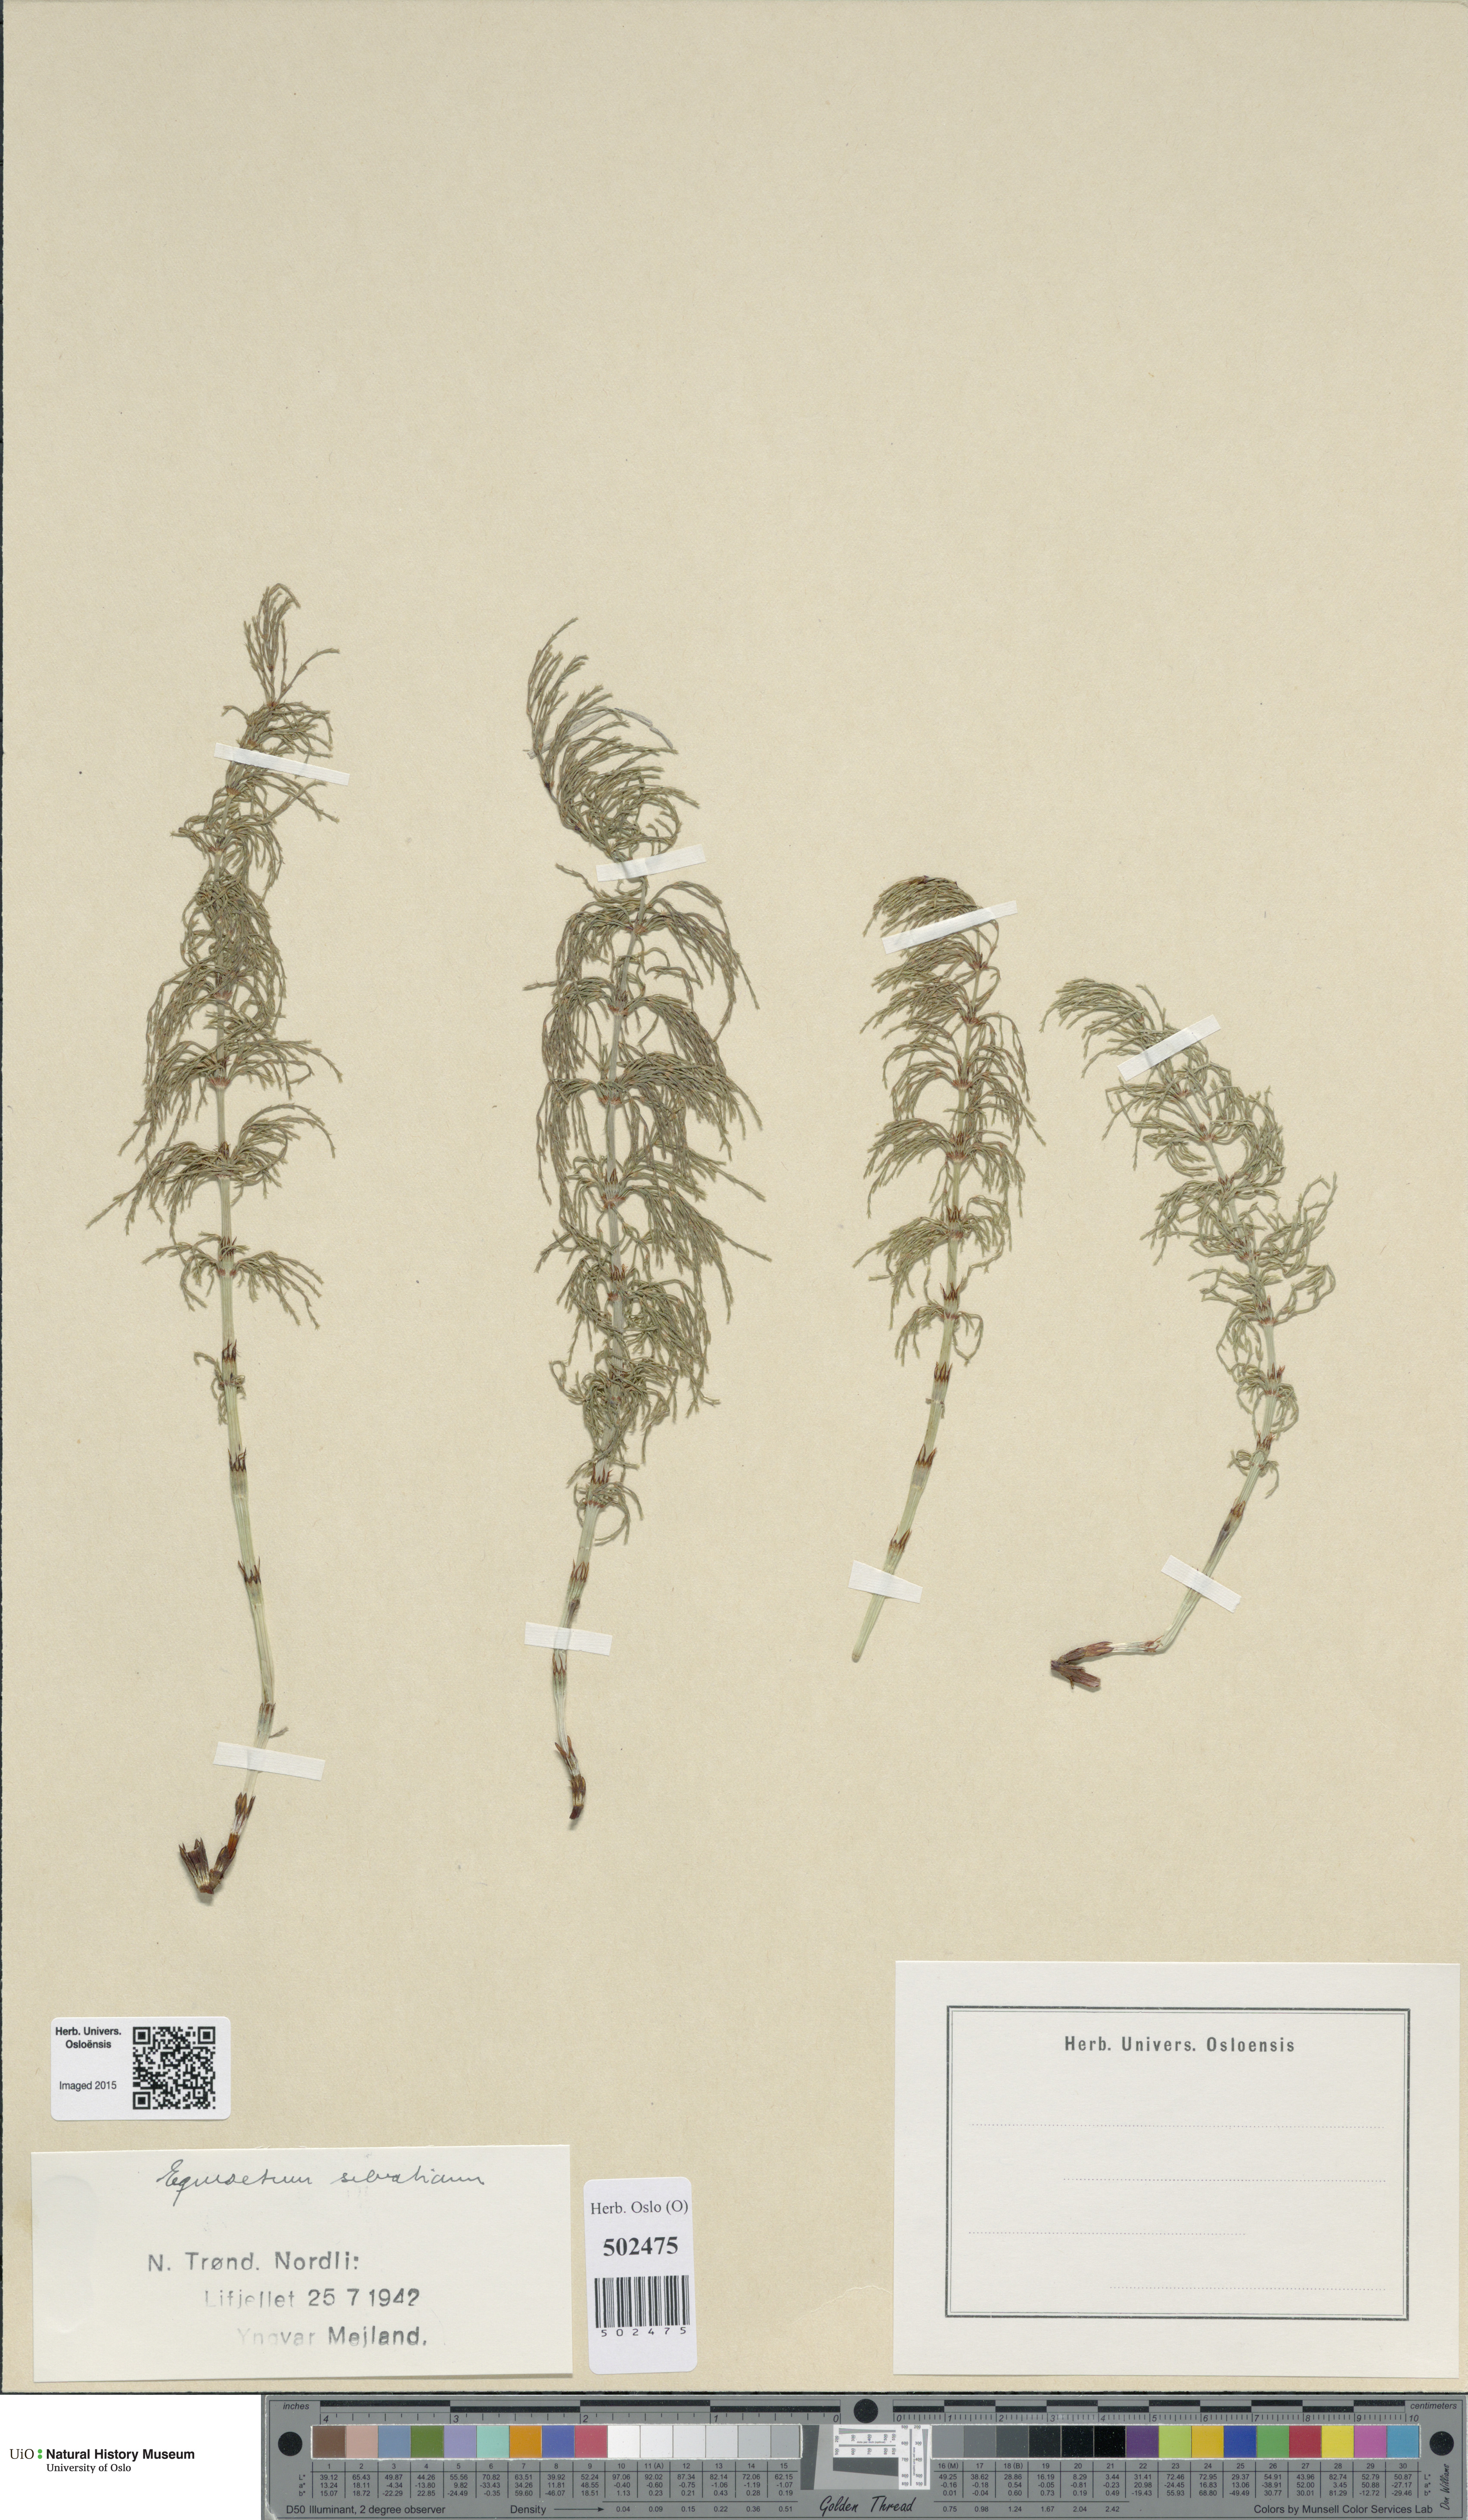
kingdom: Plantae
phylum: Tracheophyta
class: Polypodiopsida
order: Equisetales
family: Equisetaceae
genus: Equisetum
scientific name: Equisetum sylvaticum
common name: Wood horsetail
